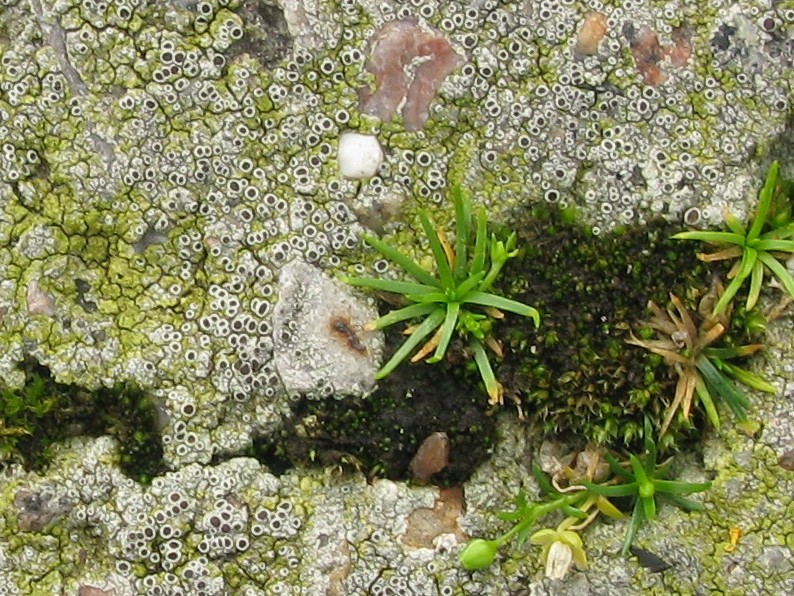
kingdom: Fungi
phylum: Ascomycota
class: Lecanoromycetes
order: Lecanorales
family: Lecanoraceae
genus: Lecanora
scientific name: Lecanora campestris
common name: mur-kantskivelav
